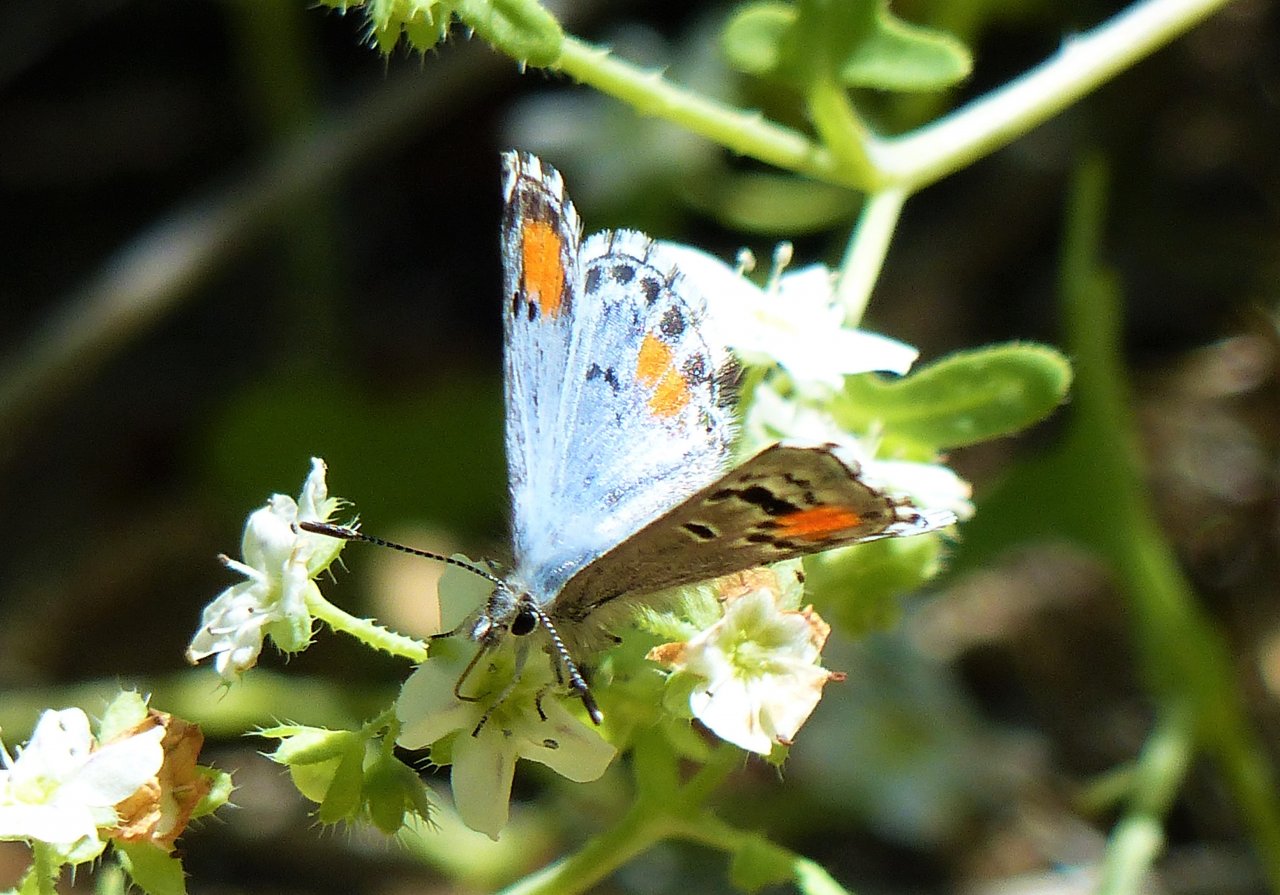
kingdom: Animalia
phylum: Arthropoda
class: Insecta
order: Lepidoptera
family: Lycaenidae
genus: Philotes
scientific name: Philotes sonorensis
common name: Sonoran Blue
